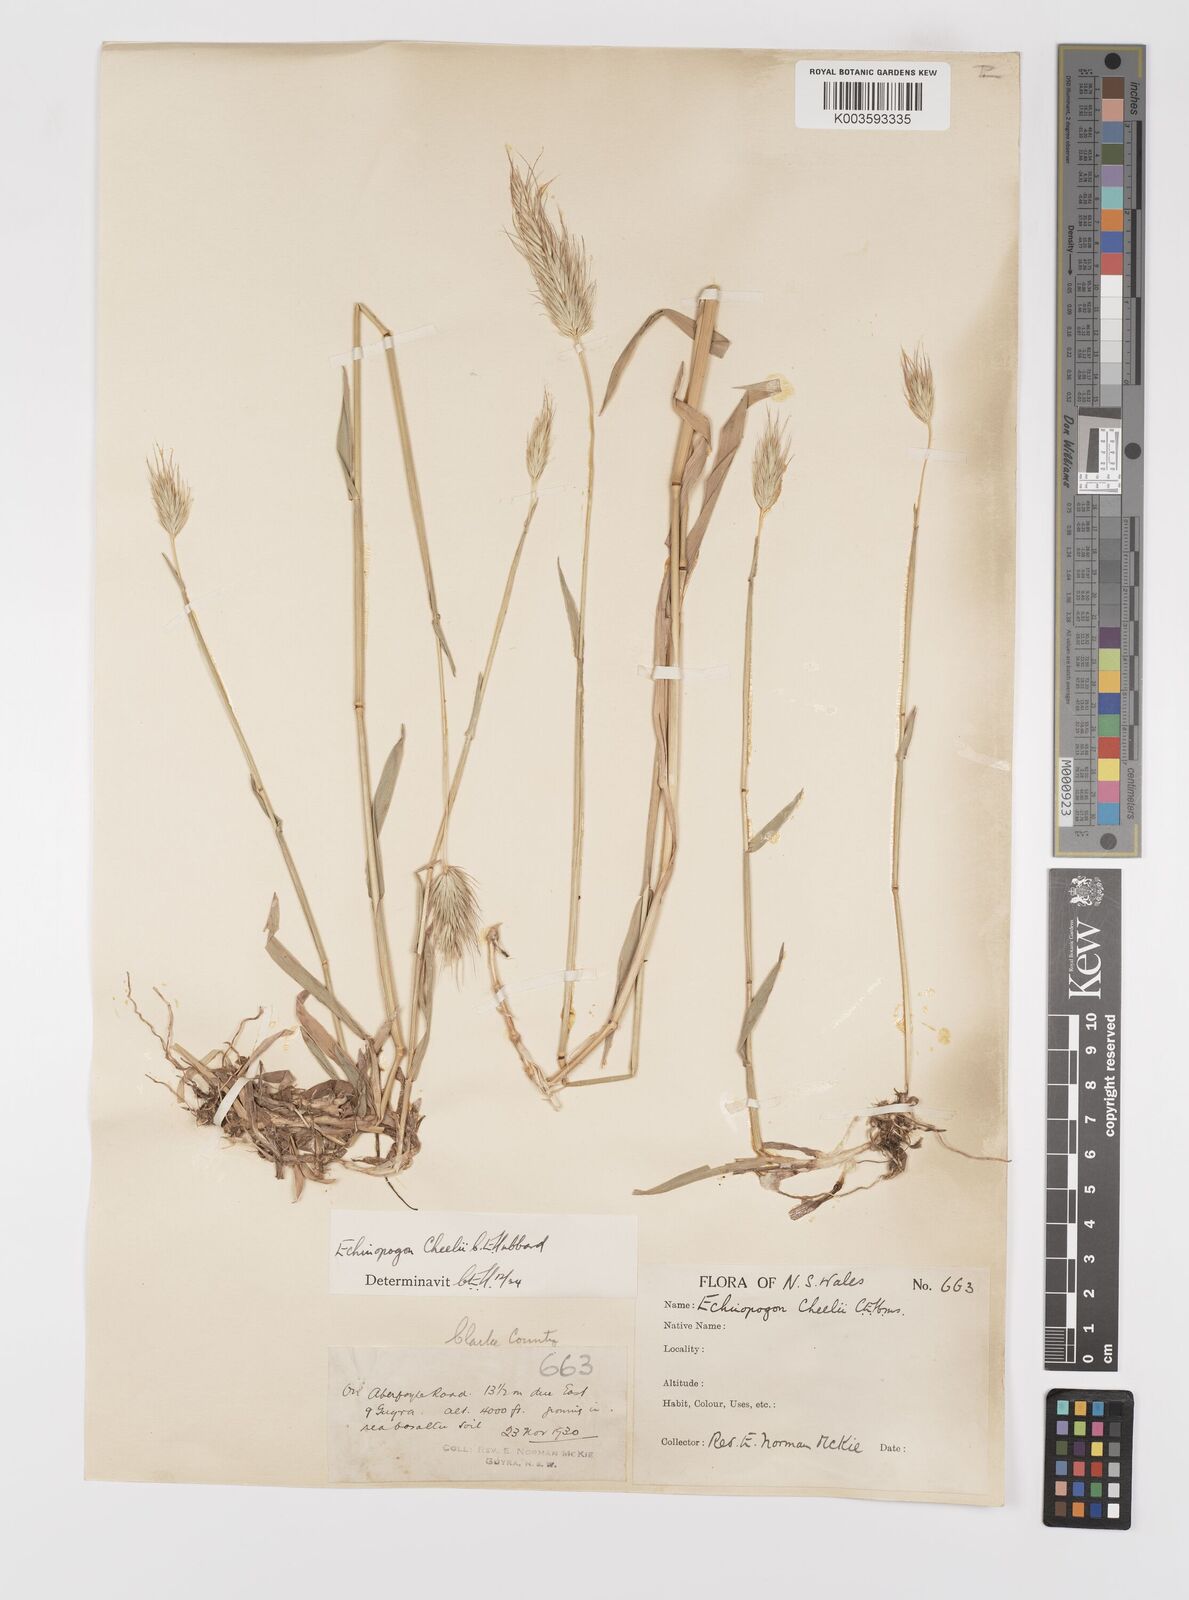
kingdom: Plantae
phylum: Tracheophyta
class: Liliopsida
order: Poales
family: Poaceae
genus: Echinopogon
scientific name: Echinopogon cheelii
